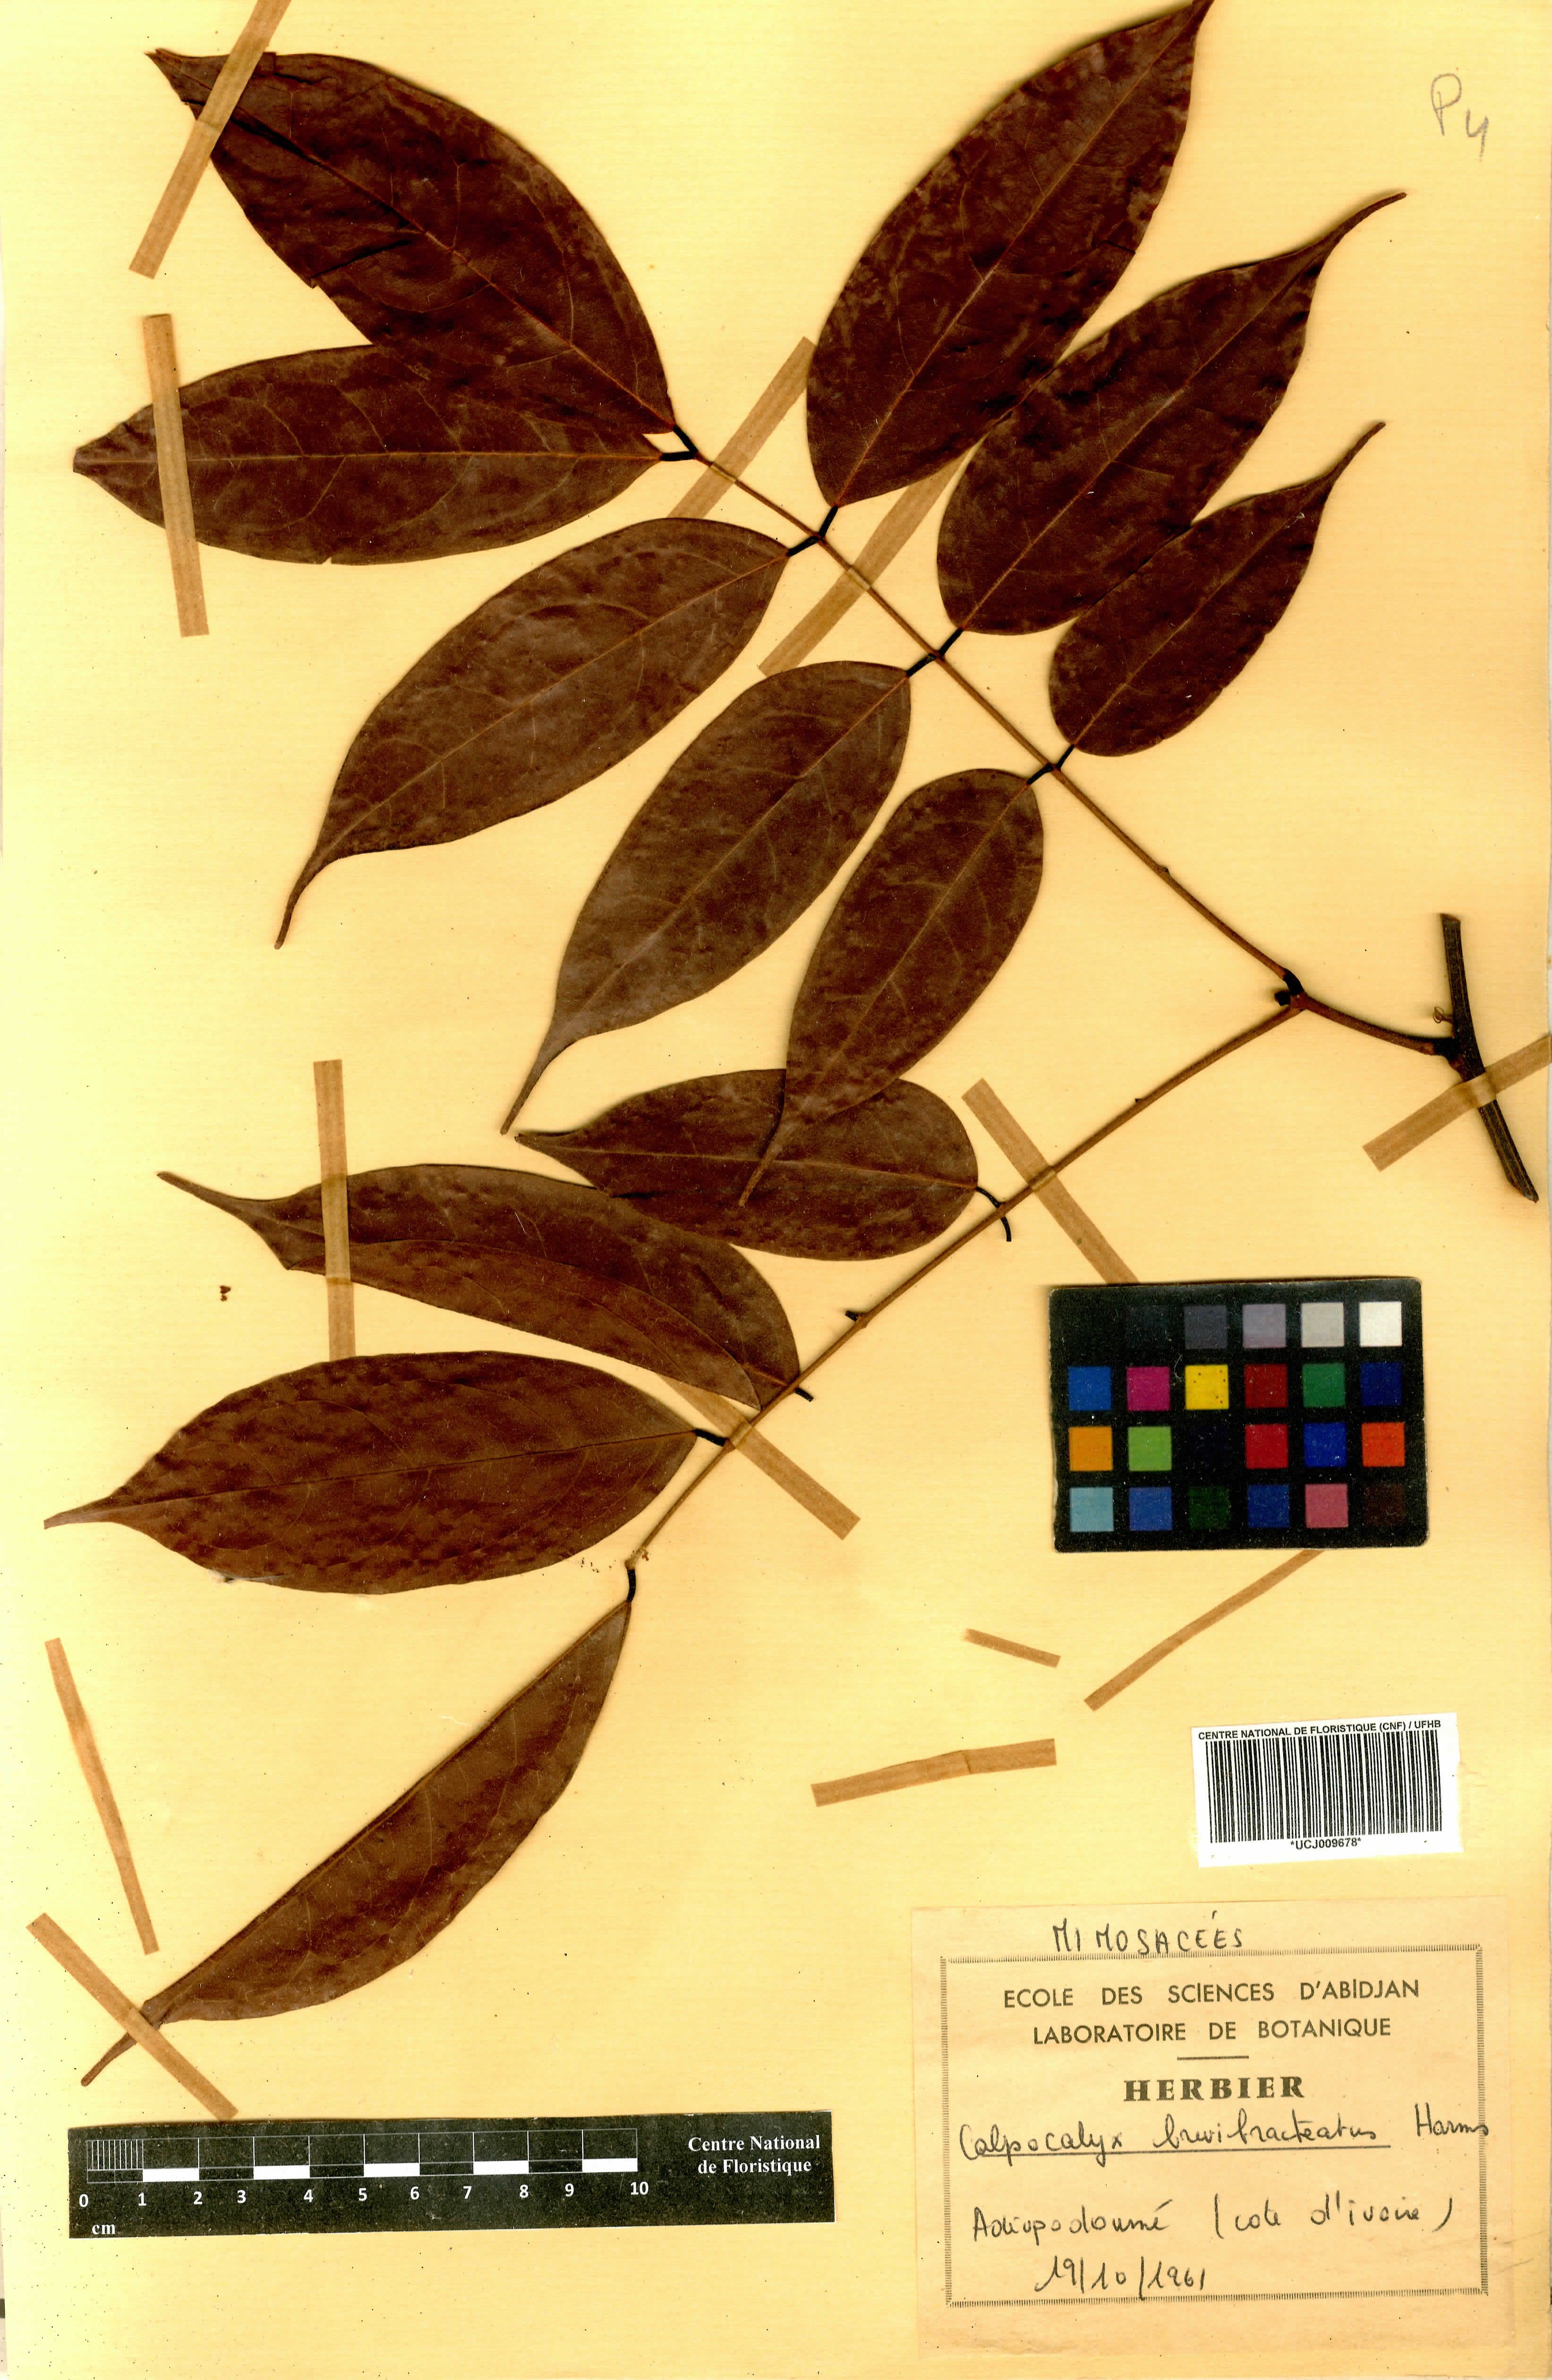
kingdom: Plantae
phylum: Tracheophyta
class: Magnoliopsida
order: Fabales
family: Fabaceae
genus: Calpocalyx
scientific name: Calpocalyx brevibracteatus
